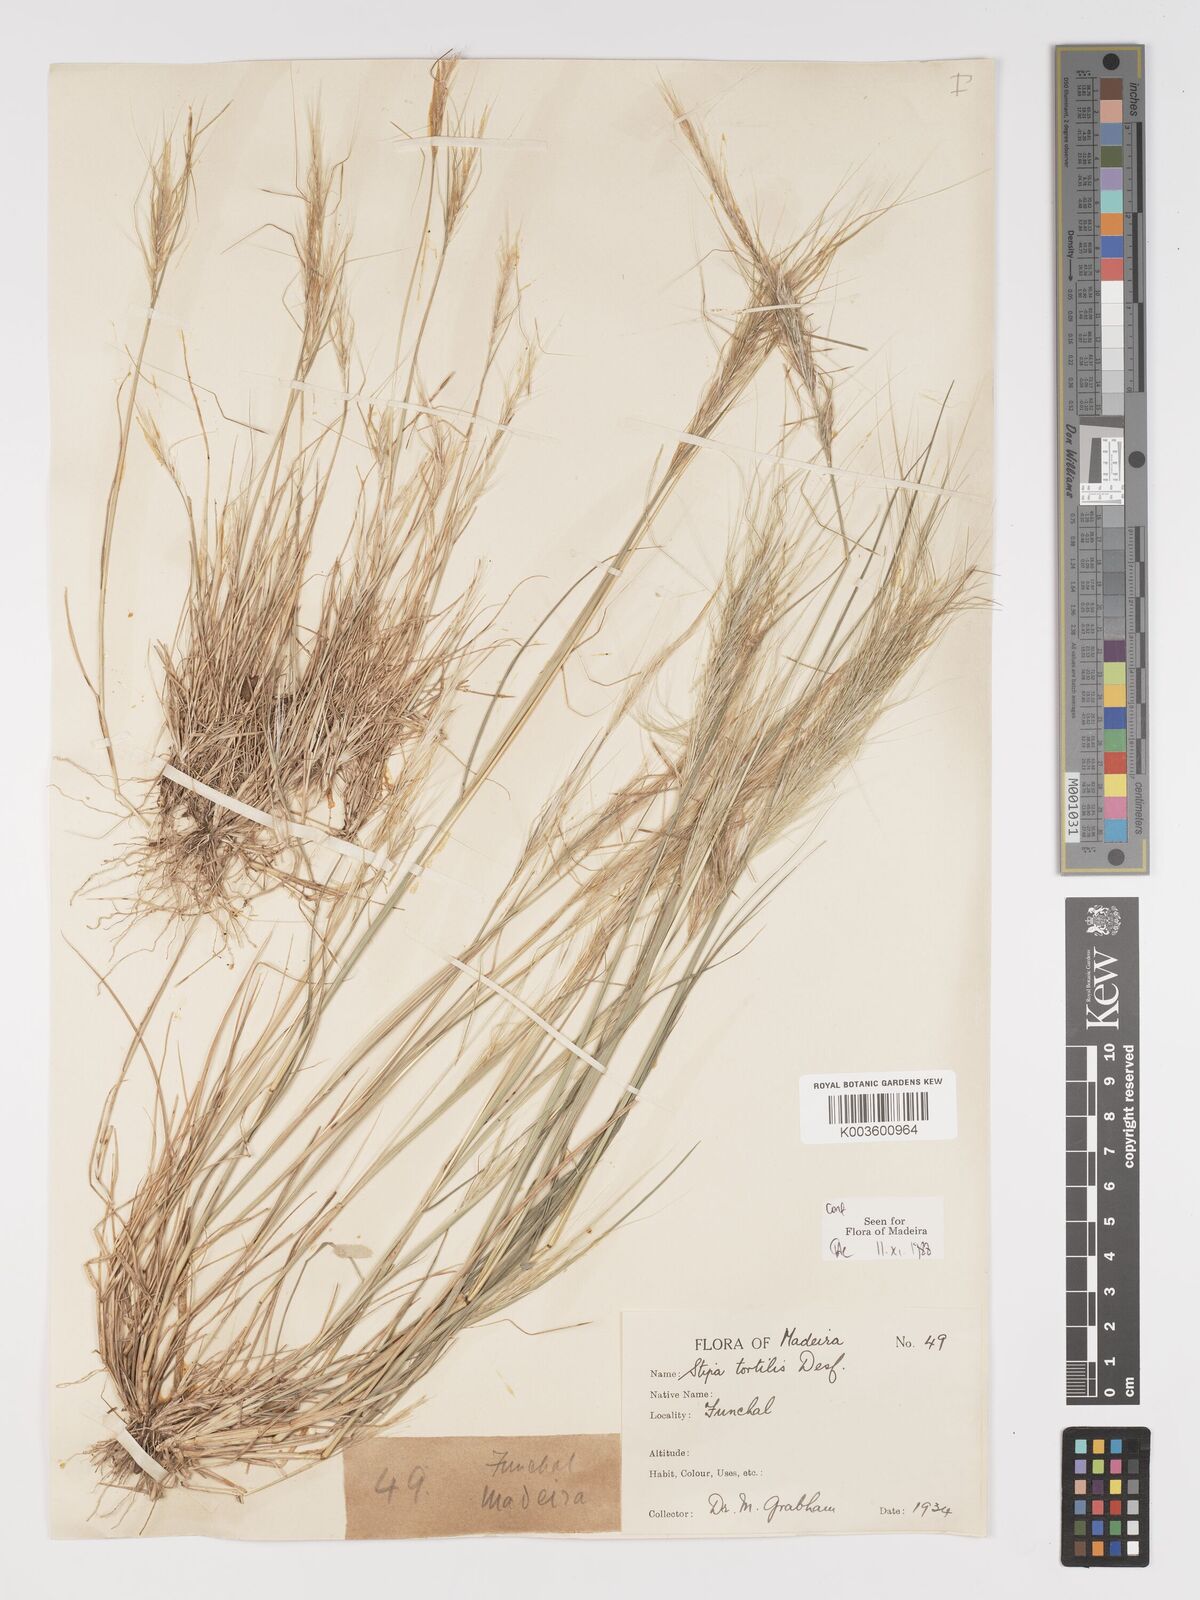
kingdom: Plantae
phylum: Tracheophyta
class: Liliopsida
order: Poales
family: Poaceae
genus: Stipellula
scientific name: Stipellula capensis
